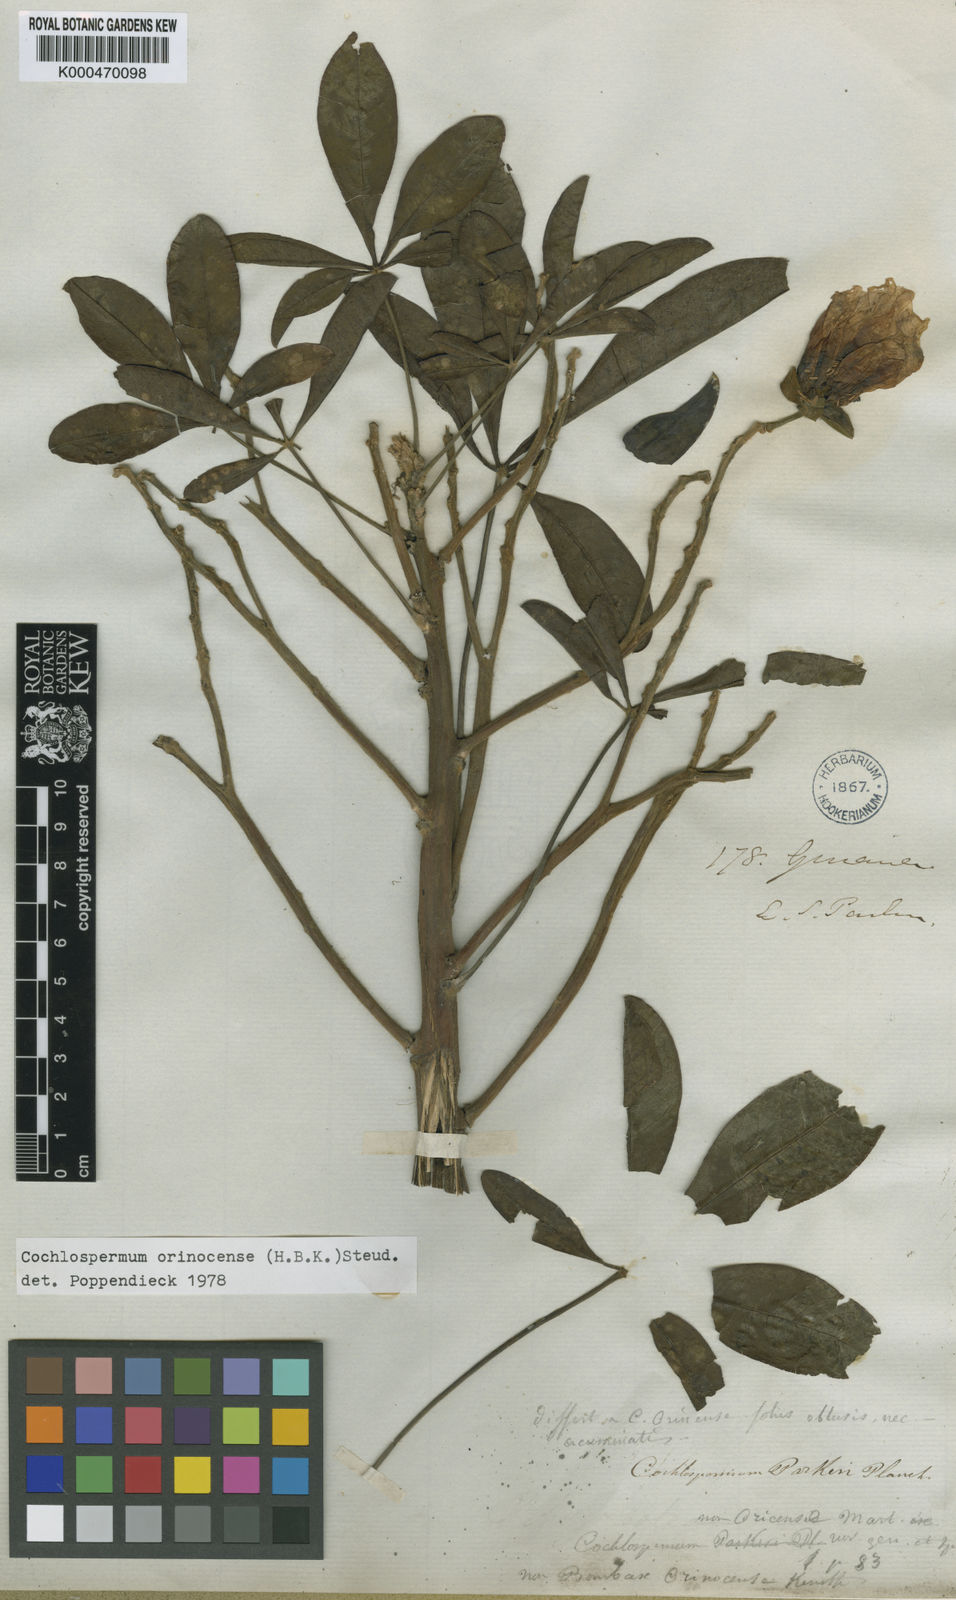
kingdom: Plantae
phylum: Tracheophyta
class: Magnoliopsida
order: Malvales
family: Cochlospermaceae
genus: Cochlospermum
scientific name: Cochlospermum orinocense
